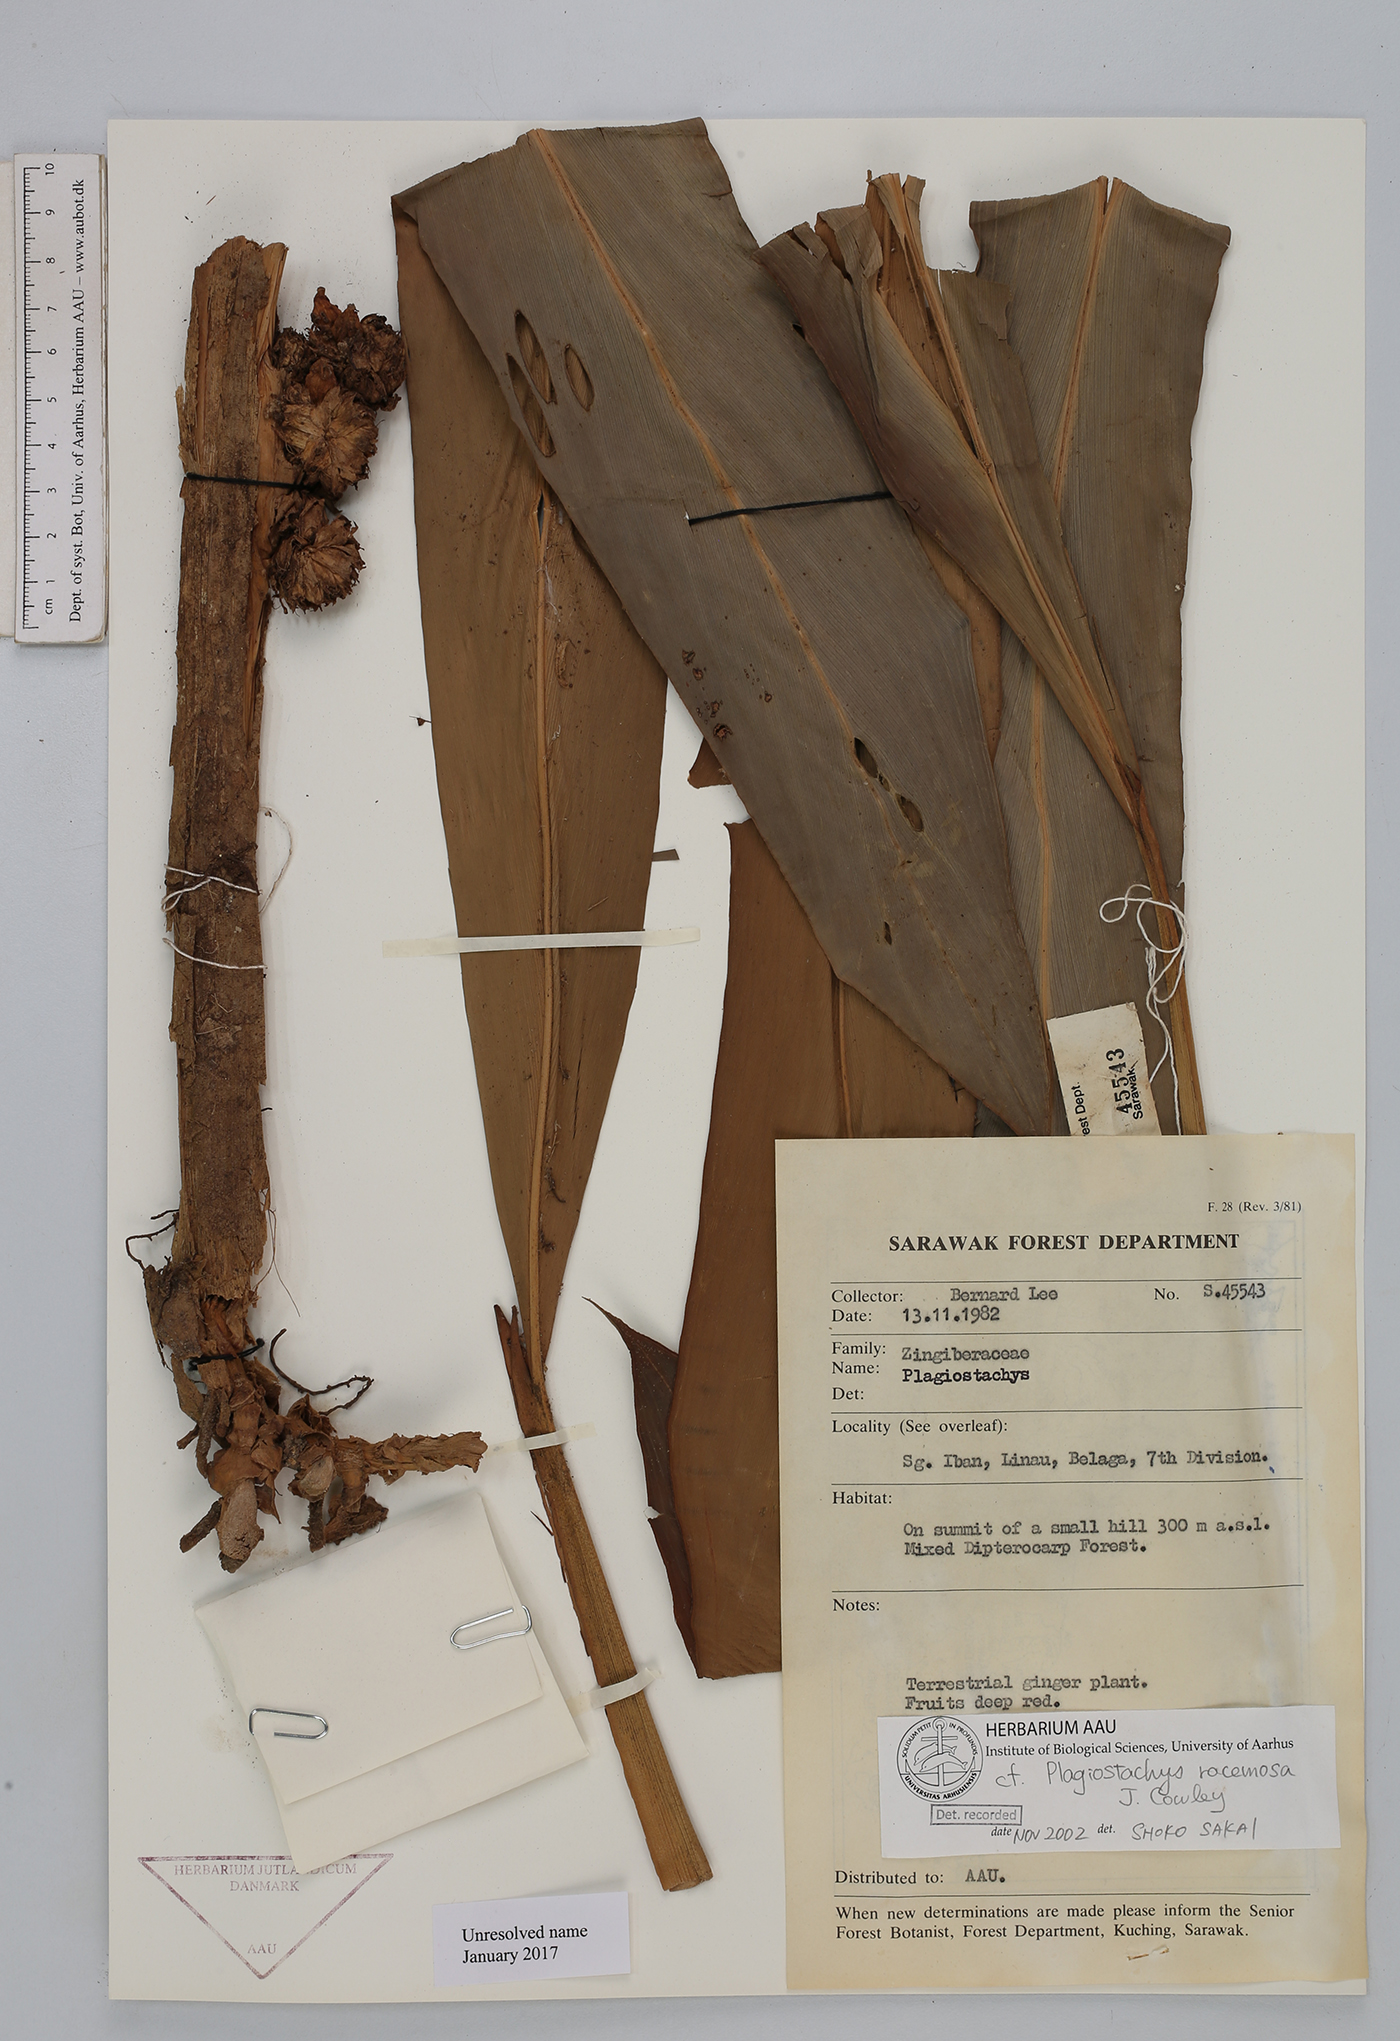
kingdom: Plantae
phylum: Tracheophyta
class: Liliopsida
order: Zingiberales
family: Zingiberaceae
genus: Plagiostachys
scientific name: Plagiostachys
